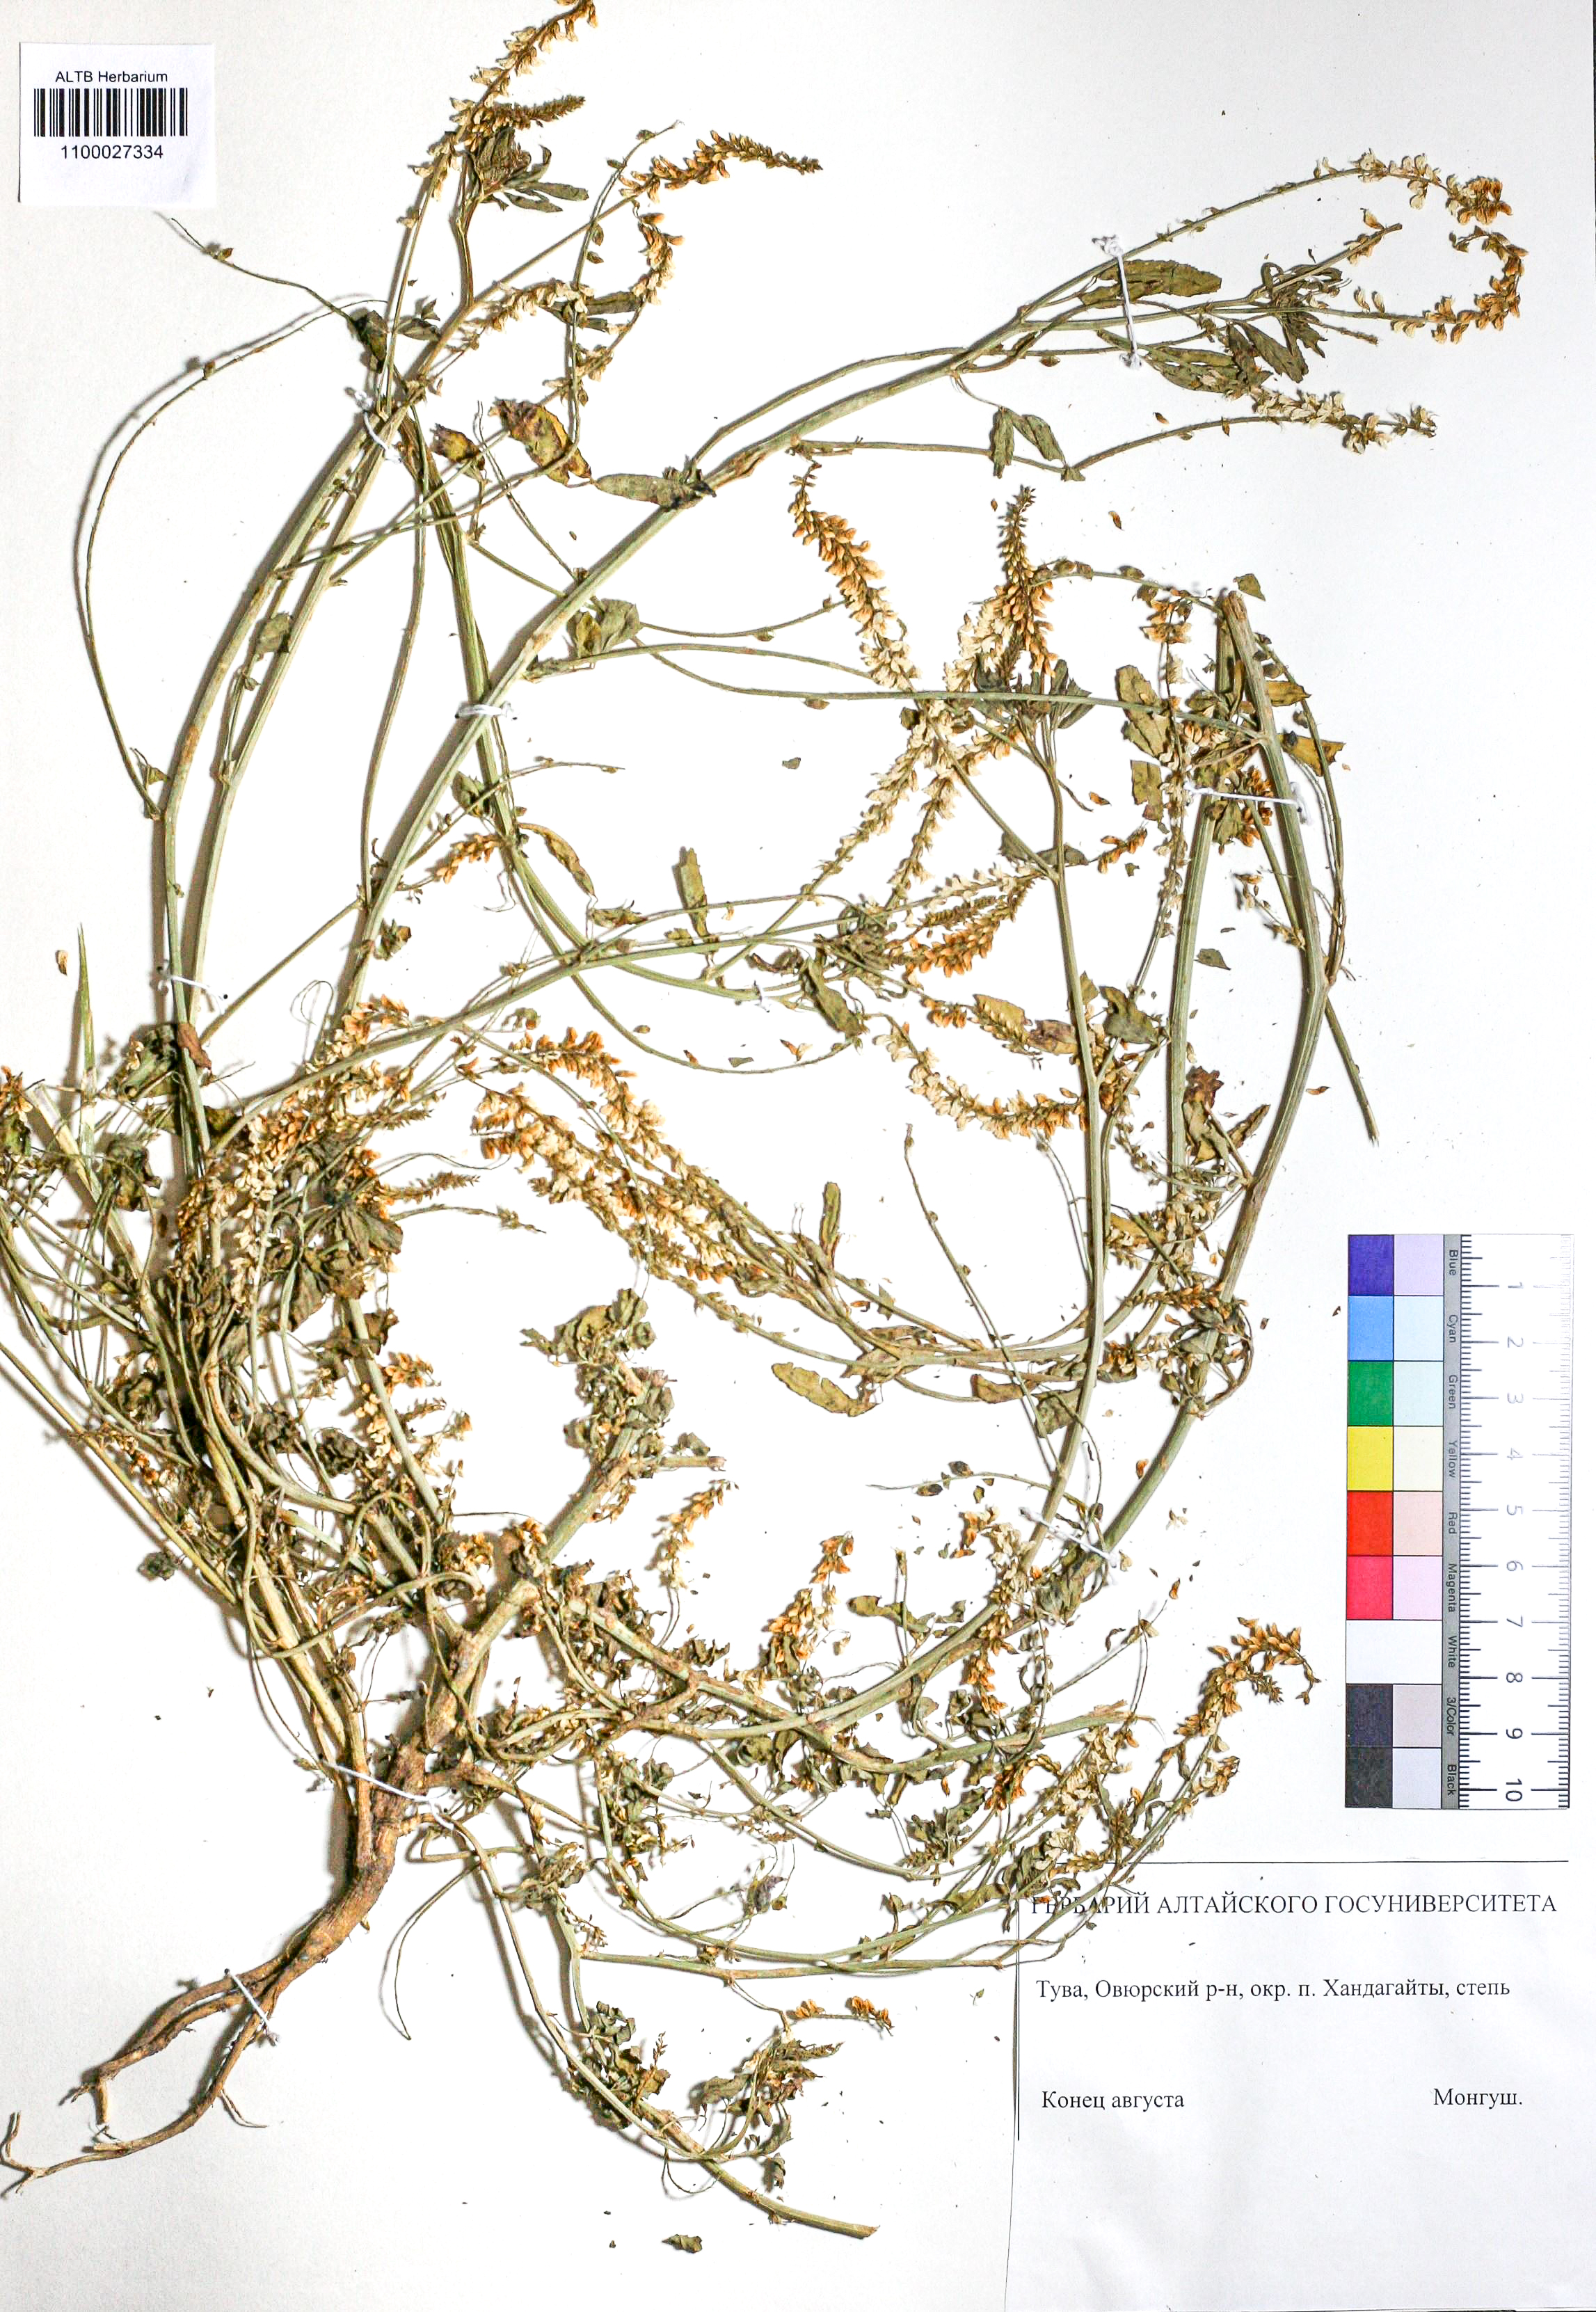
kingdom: Plantae
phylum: Tracheophyta
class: Magnoliopsida
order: Fabales
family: Fabaceae
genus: Melilotus
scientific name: Melilotus albus
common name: White melilot
